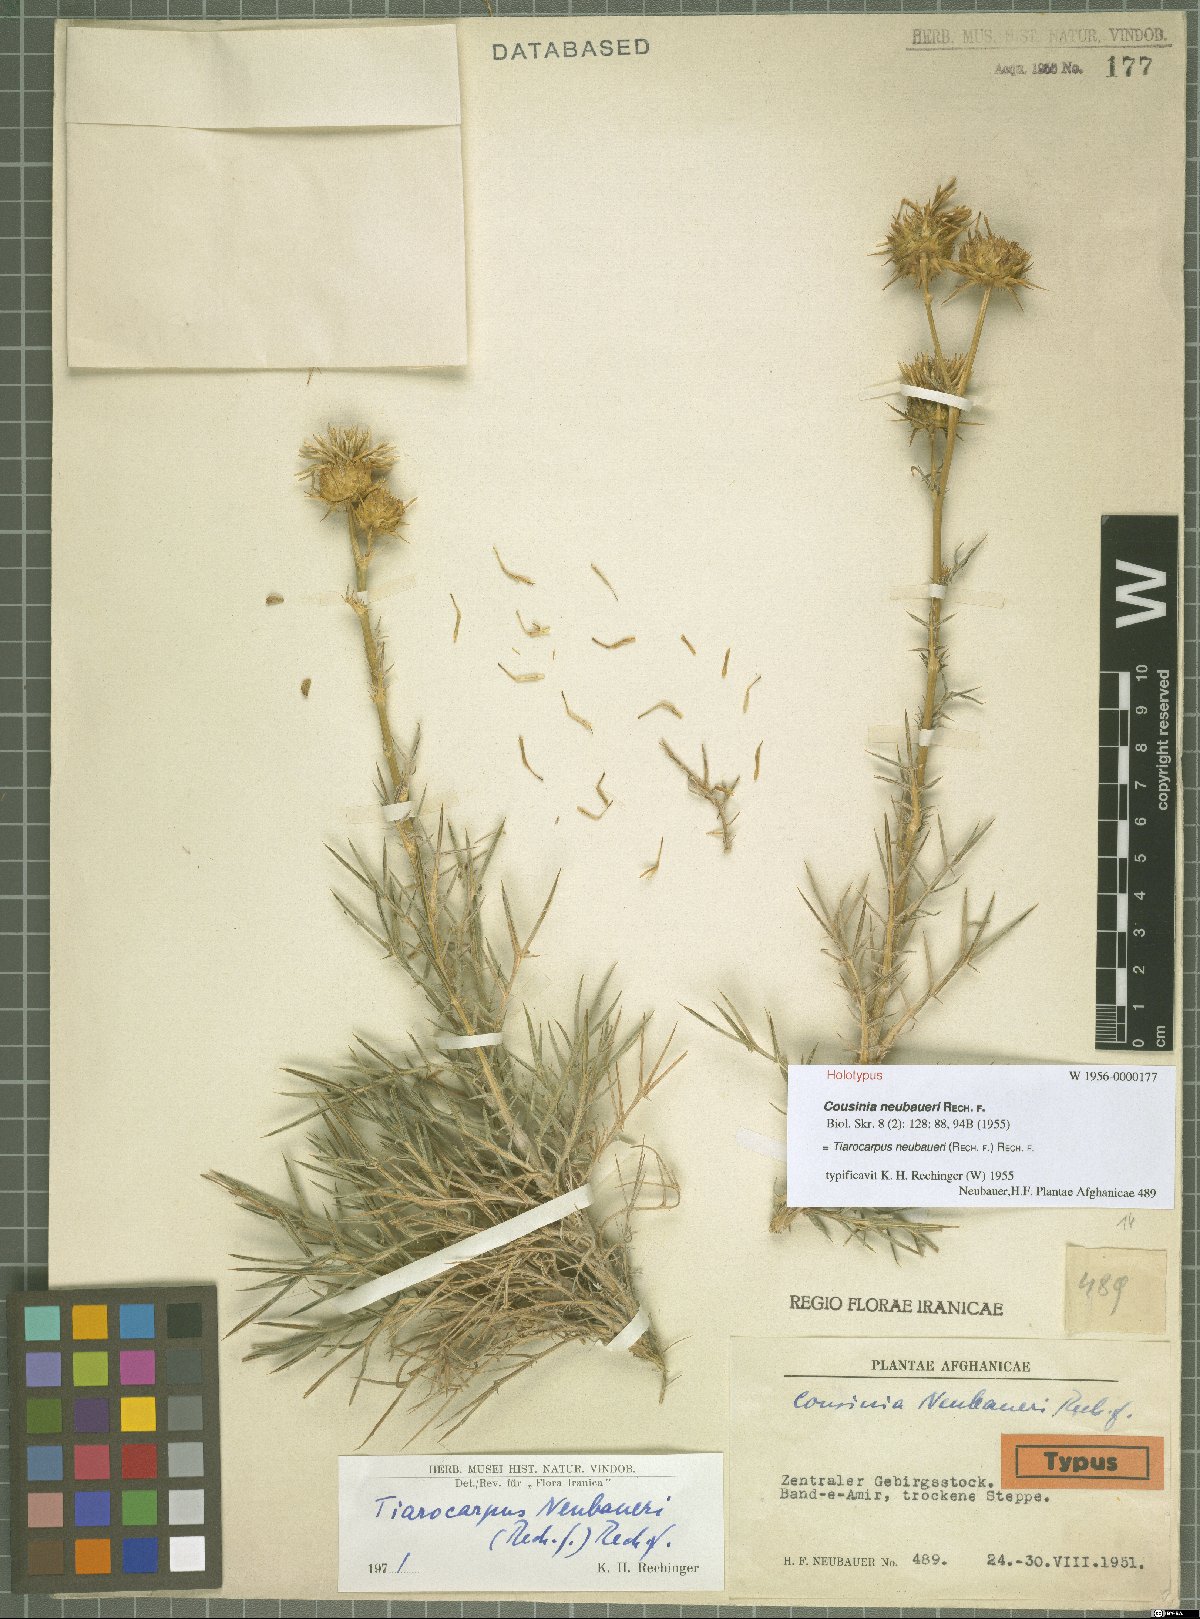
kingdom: Plantae
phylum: Tracheophyta
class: Magnoliopsida
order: Asterales
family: Asteraceae
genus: Cousinia
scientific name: Cousinia neubaueri
